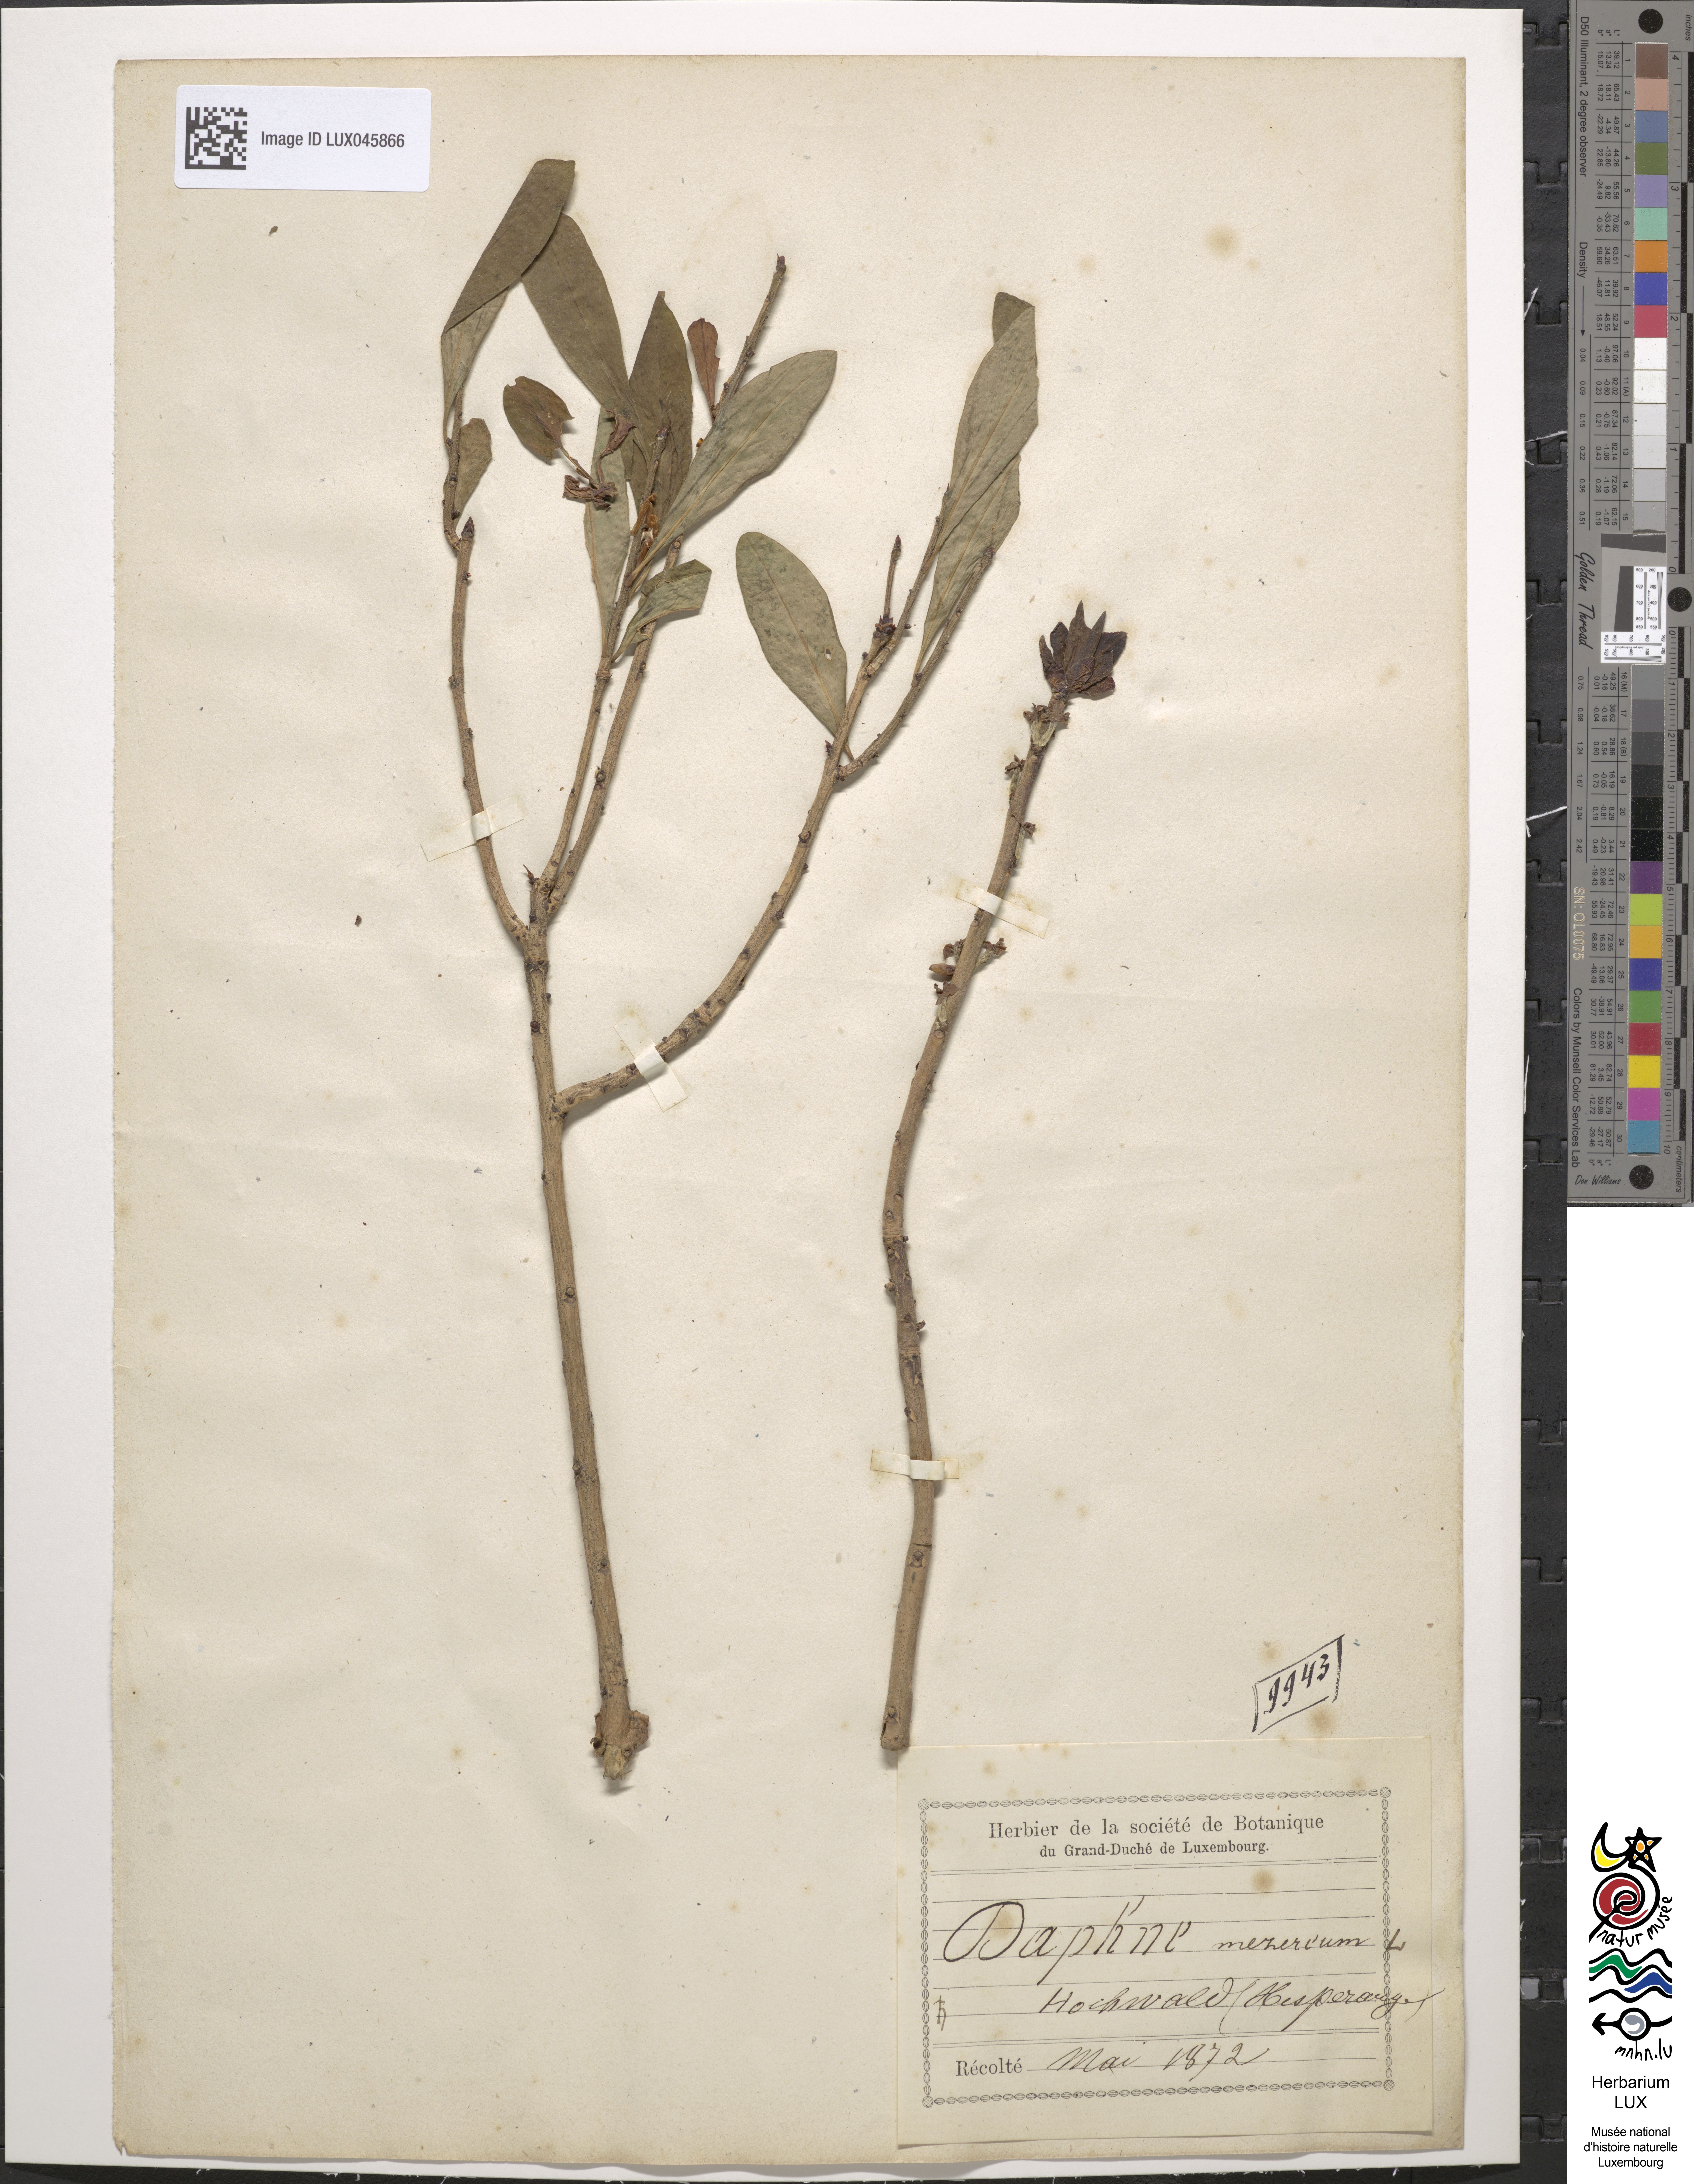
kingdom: Plantae
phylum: Tracheophyta
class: Magnoliopsida
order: Malvales
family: Thymelaeaceae
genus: Daphne
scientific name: Daphne mezereum
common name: Mezereon
